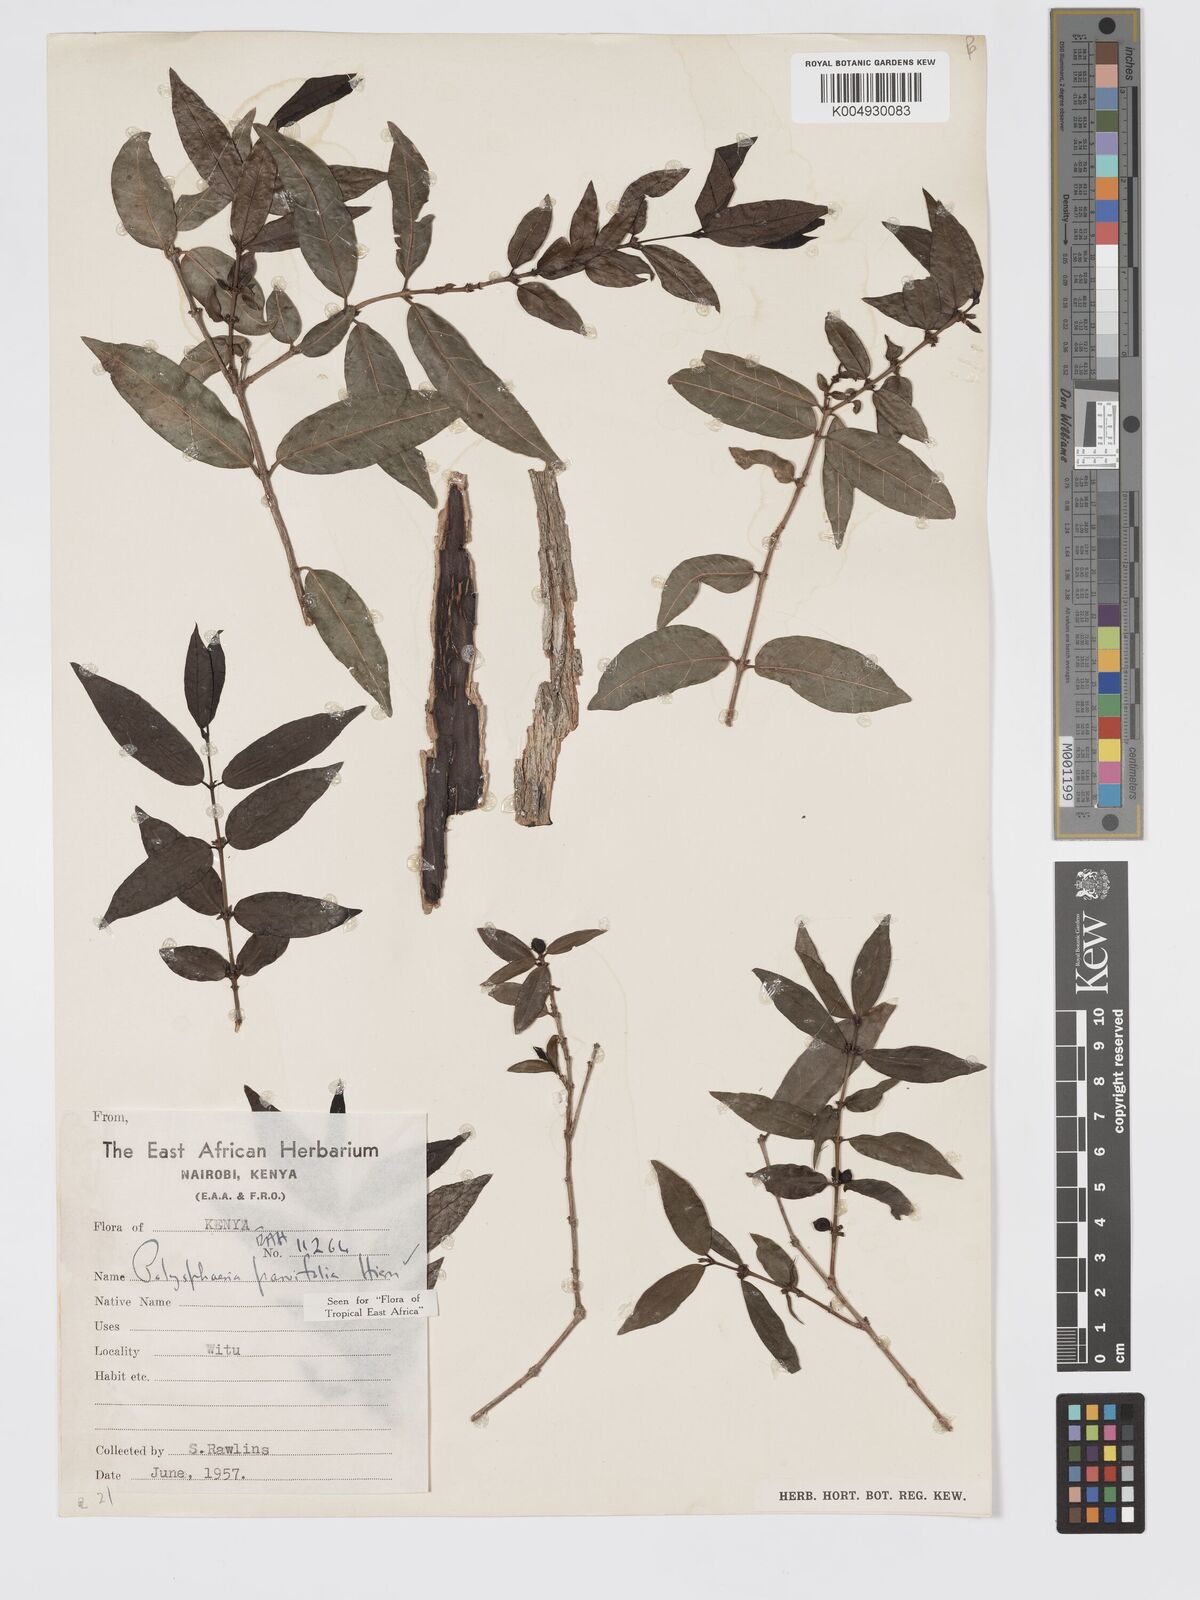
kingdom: Plantae
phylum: Tracheophyta
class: Magnoliopsida
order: Gentianales
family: Rubiaceae
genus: Polysphaeria
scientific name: Polysphaeria parvifolia
